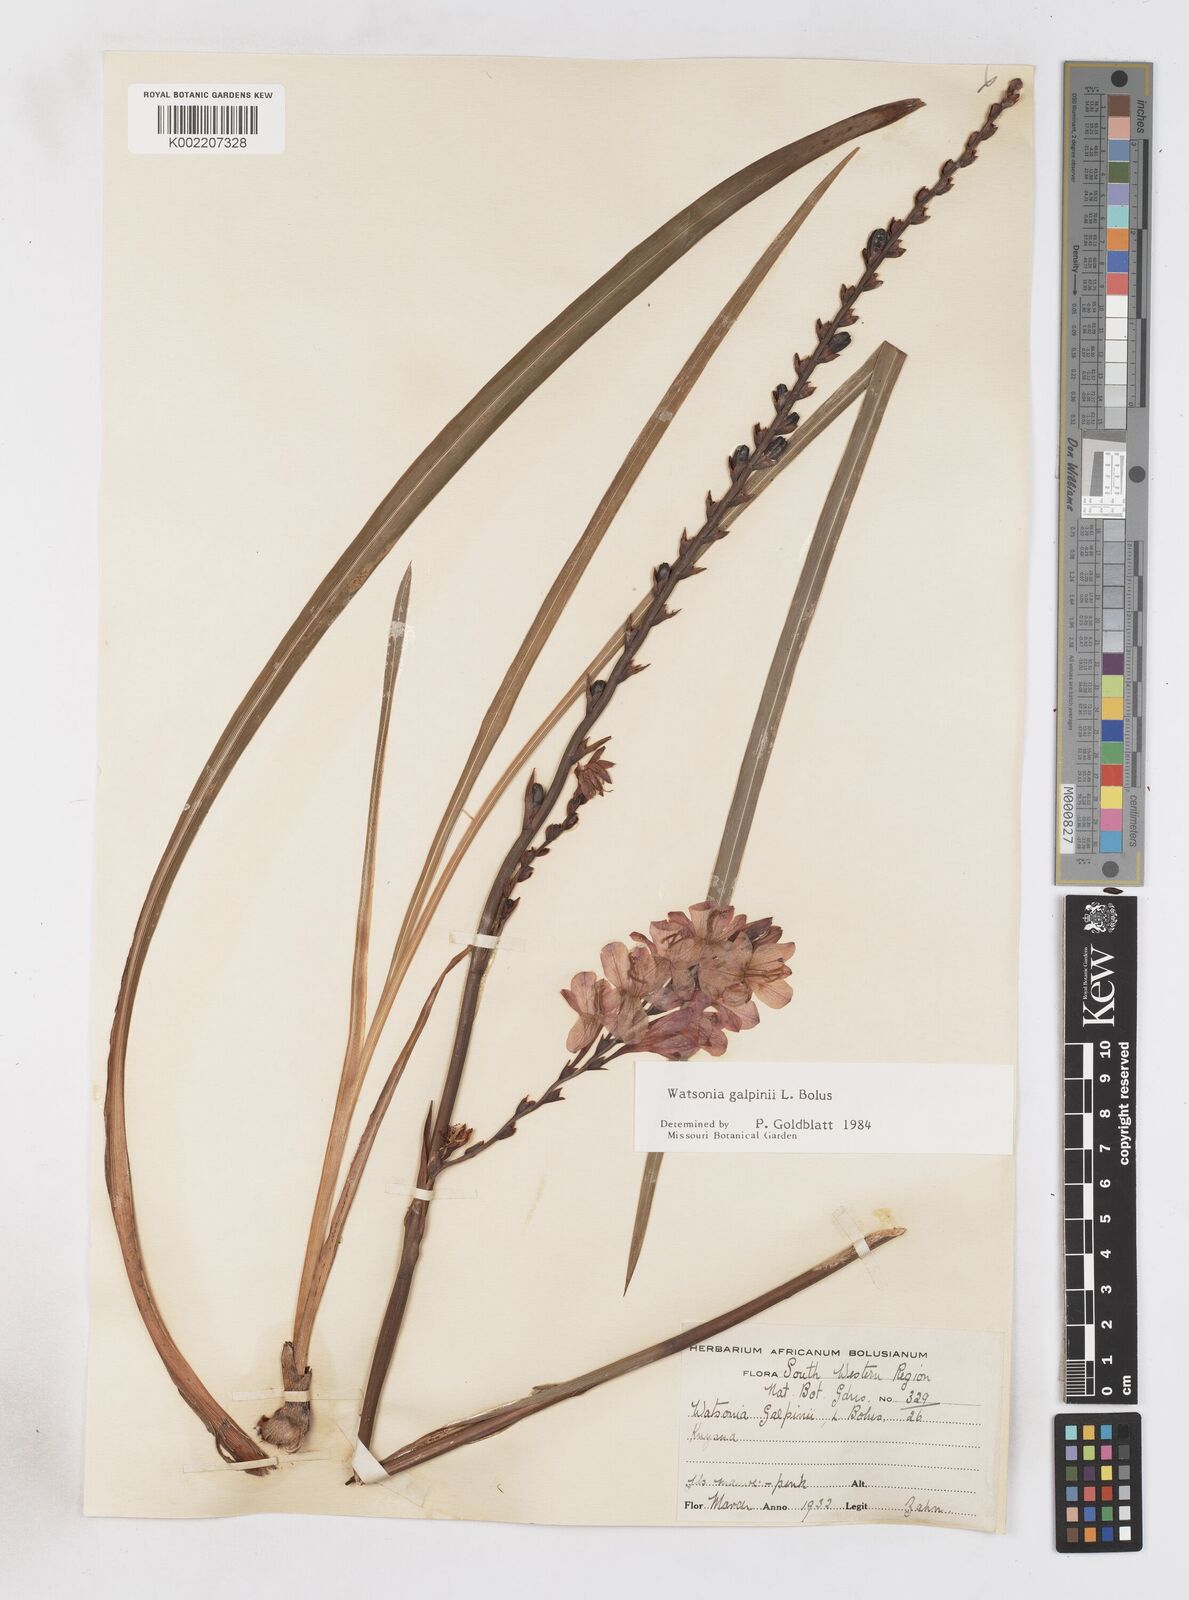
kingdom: Plantae
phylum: Tracheophyta
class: Liliopsida
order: Asparagales
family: Iridaceae
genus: Watsonia
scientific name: Watsonia galpinii
